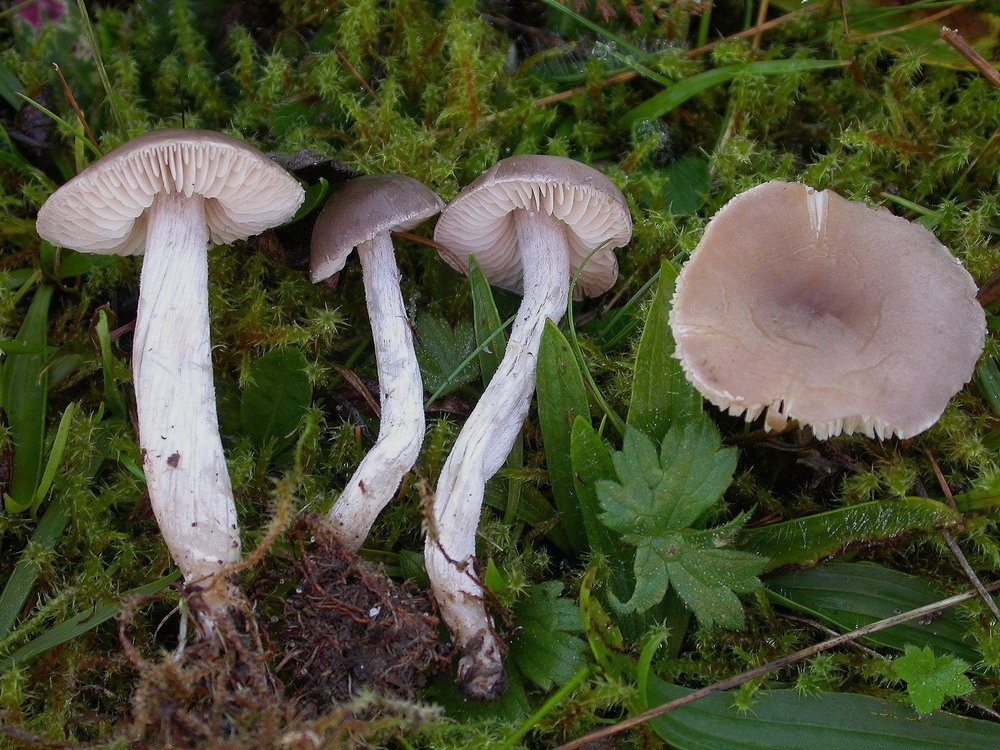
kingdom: Fungi
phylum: Basidiomycota
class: Agaricomycetes
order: Agaricales
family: Tricholomataceae
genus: Dermoloma
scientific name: Dermoloma cuneifolium
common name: eng-nonnehat
